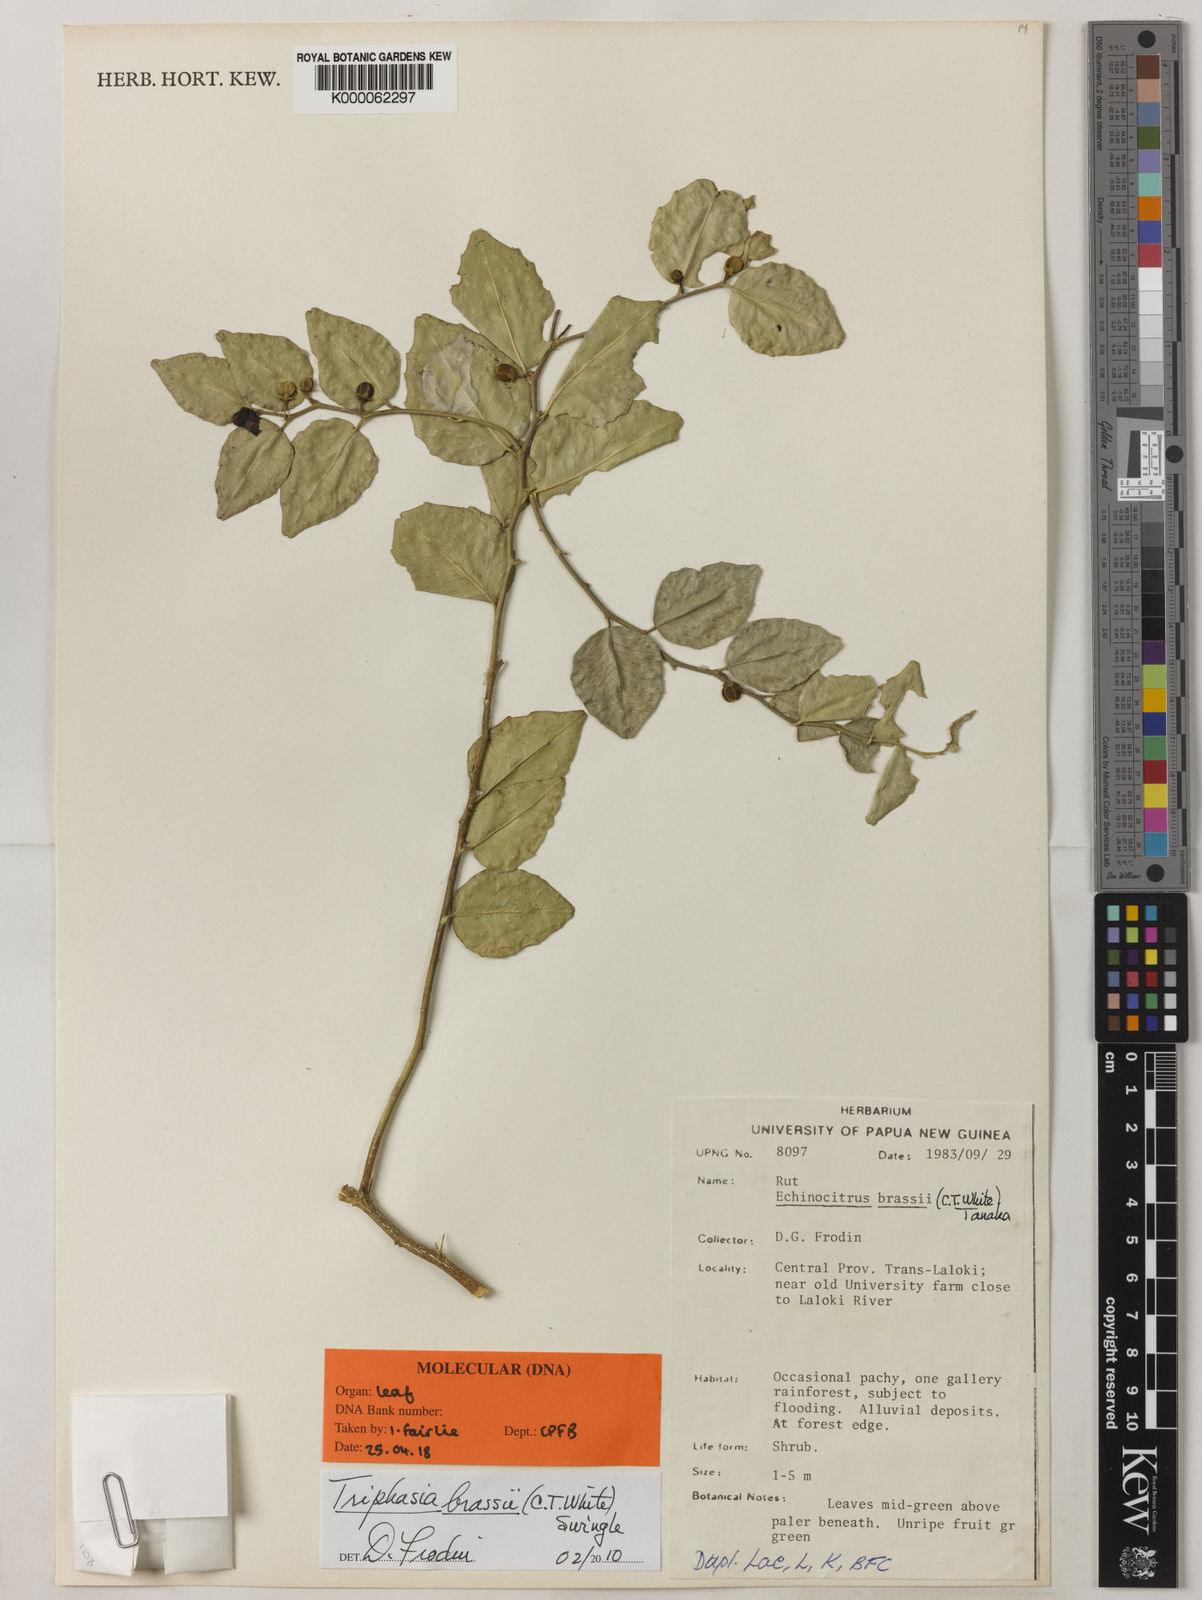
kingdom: Plantae
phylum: Tracheophyta
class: Magnoliopsida
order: Sapindales
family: Rutaceae
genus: Triphasia
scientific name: Triphasia
